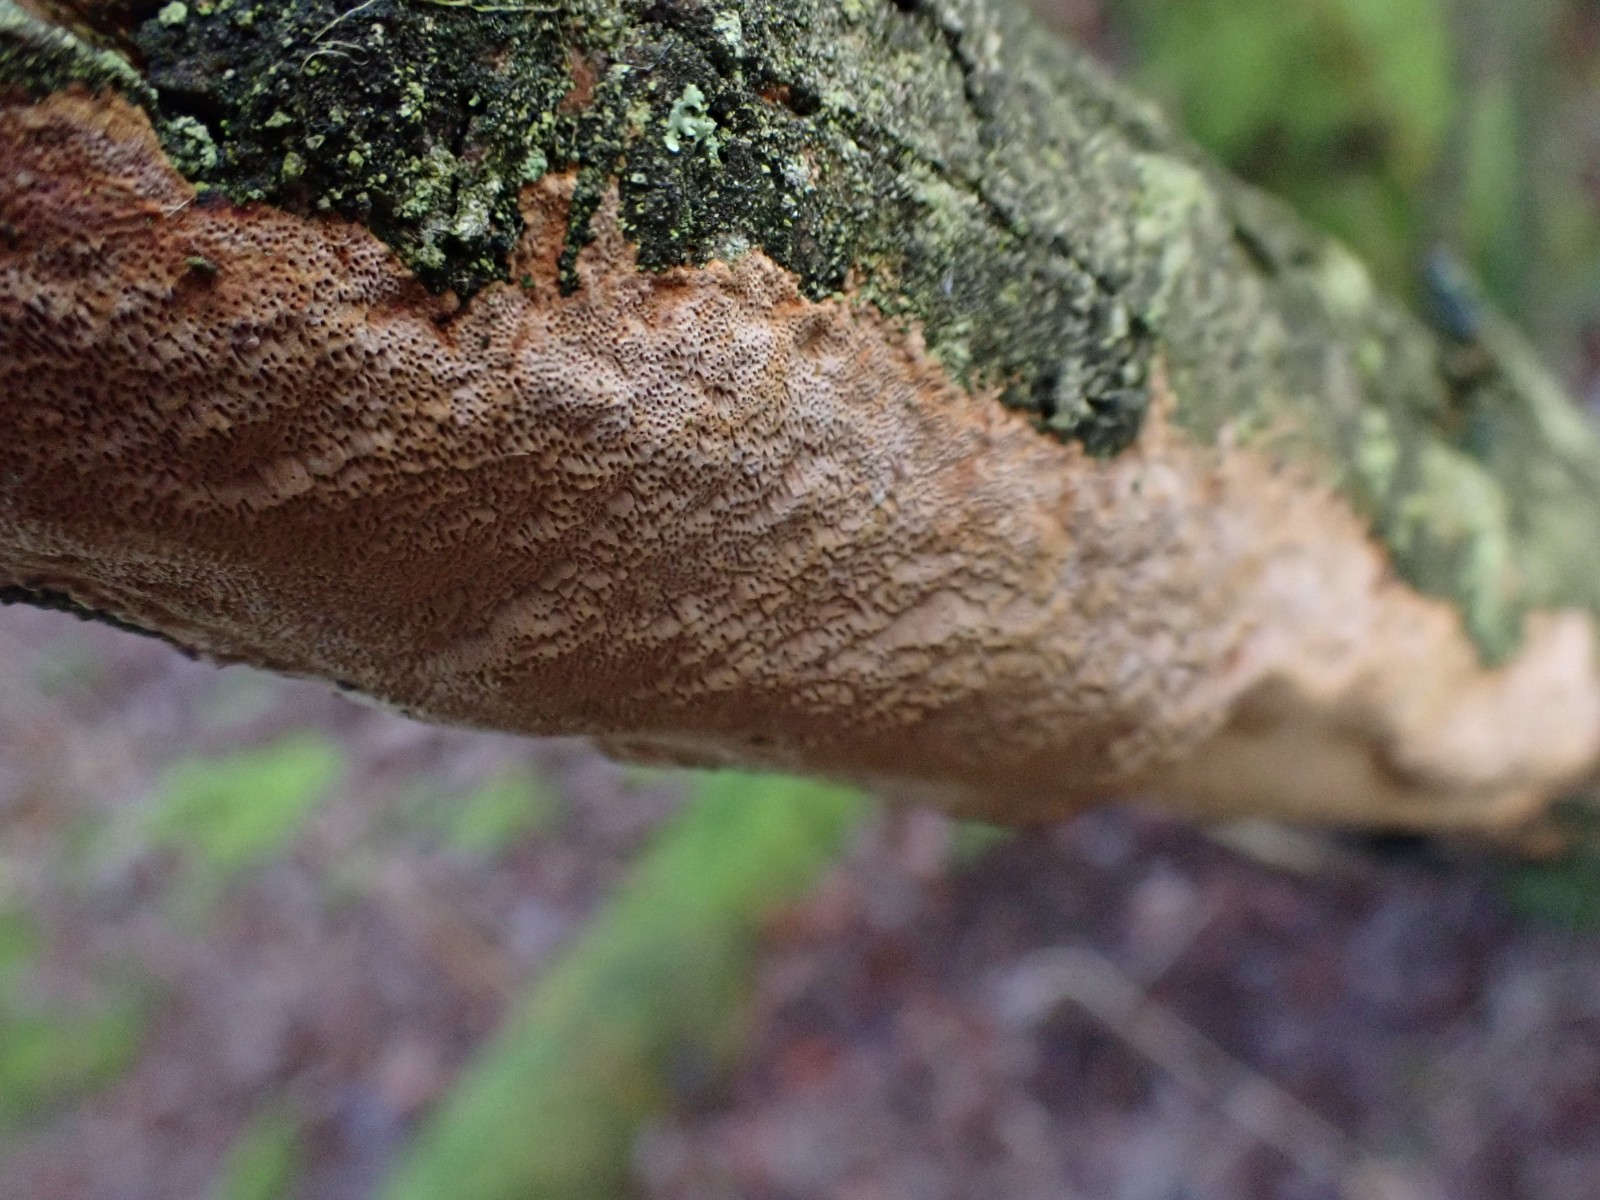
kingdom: Fungi
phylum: Basidiomycota
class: Agaricomycetes
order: Hymenochaetales
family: Hymenochaetaceae
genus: Fuscoporia
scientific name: Fuscoporia ferrea
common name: skorpe-ildporesvamp
